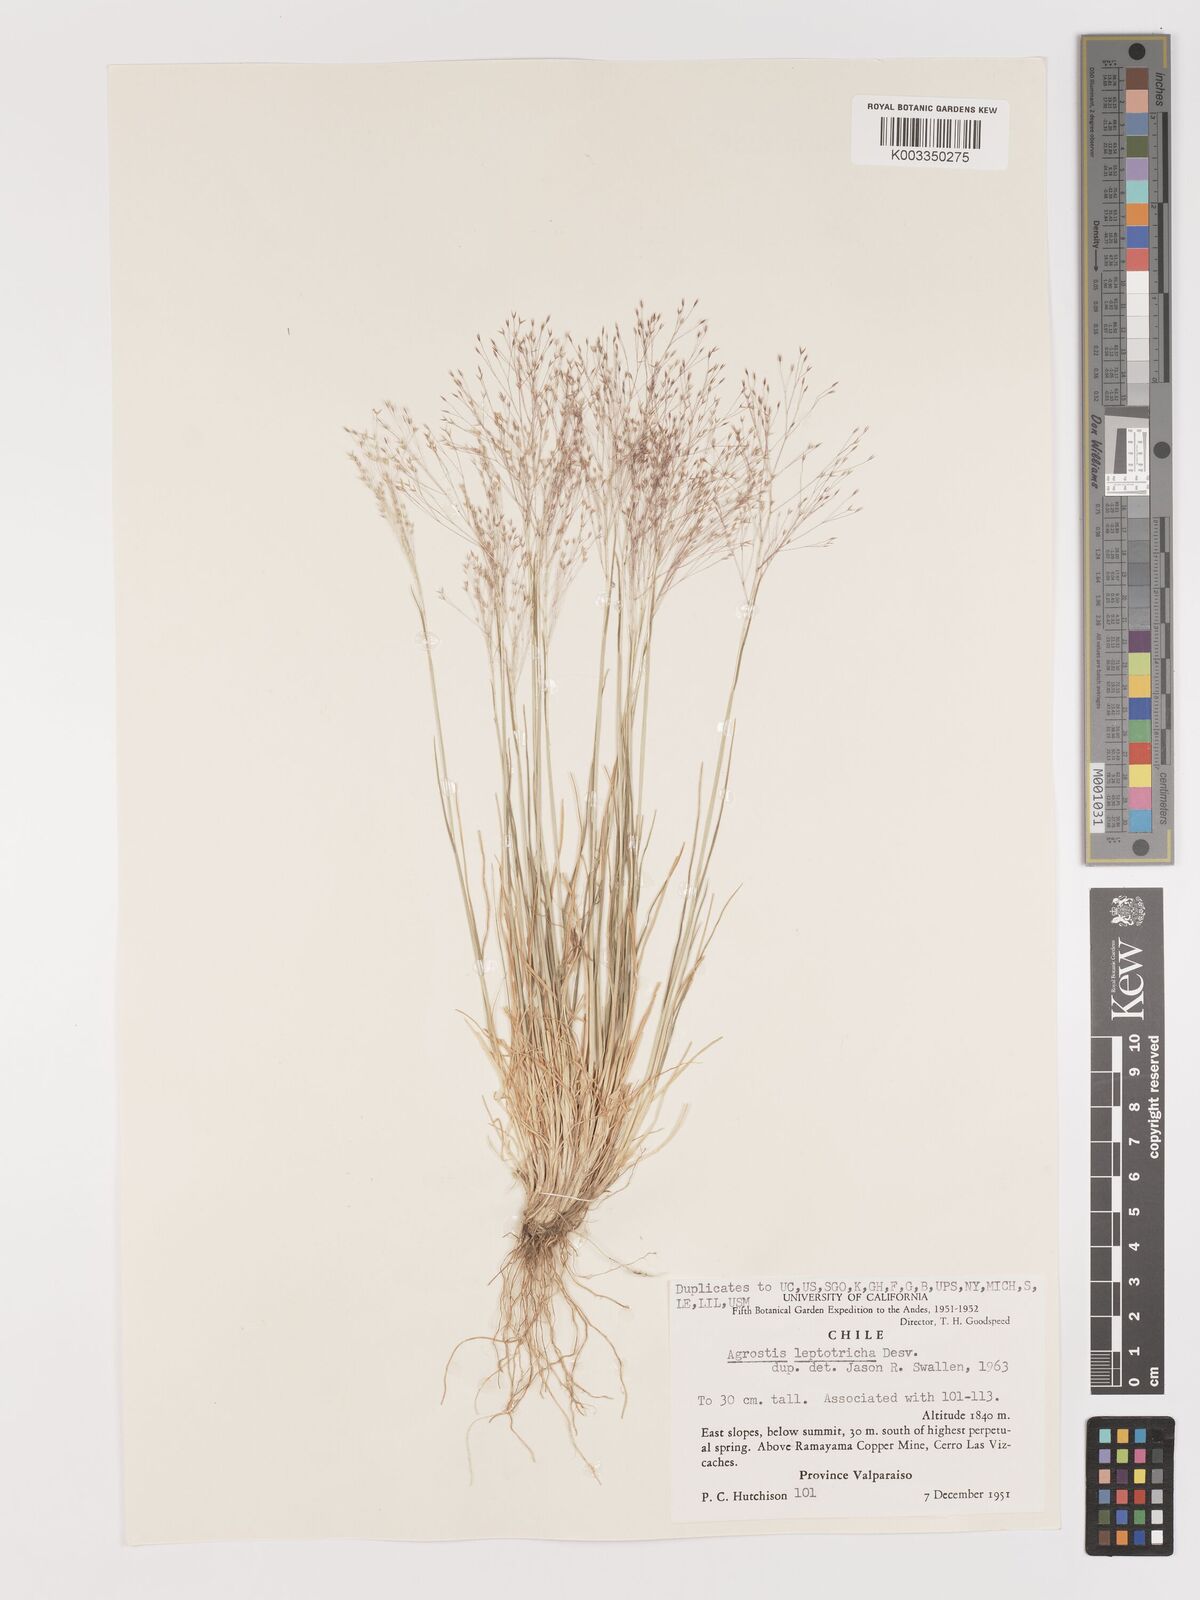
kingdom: Plantae
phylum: Tracheophyta
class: Liliopsida
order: Poales
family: Poaceae
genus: Agrostis
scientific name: Agrostis leptotricha
